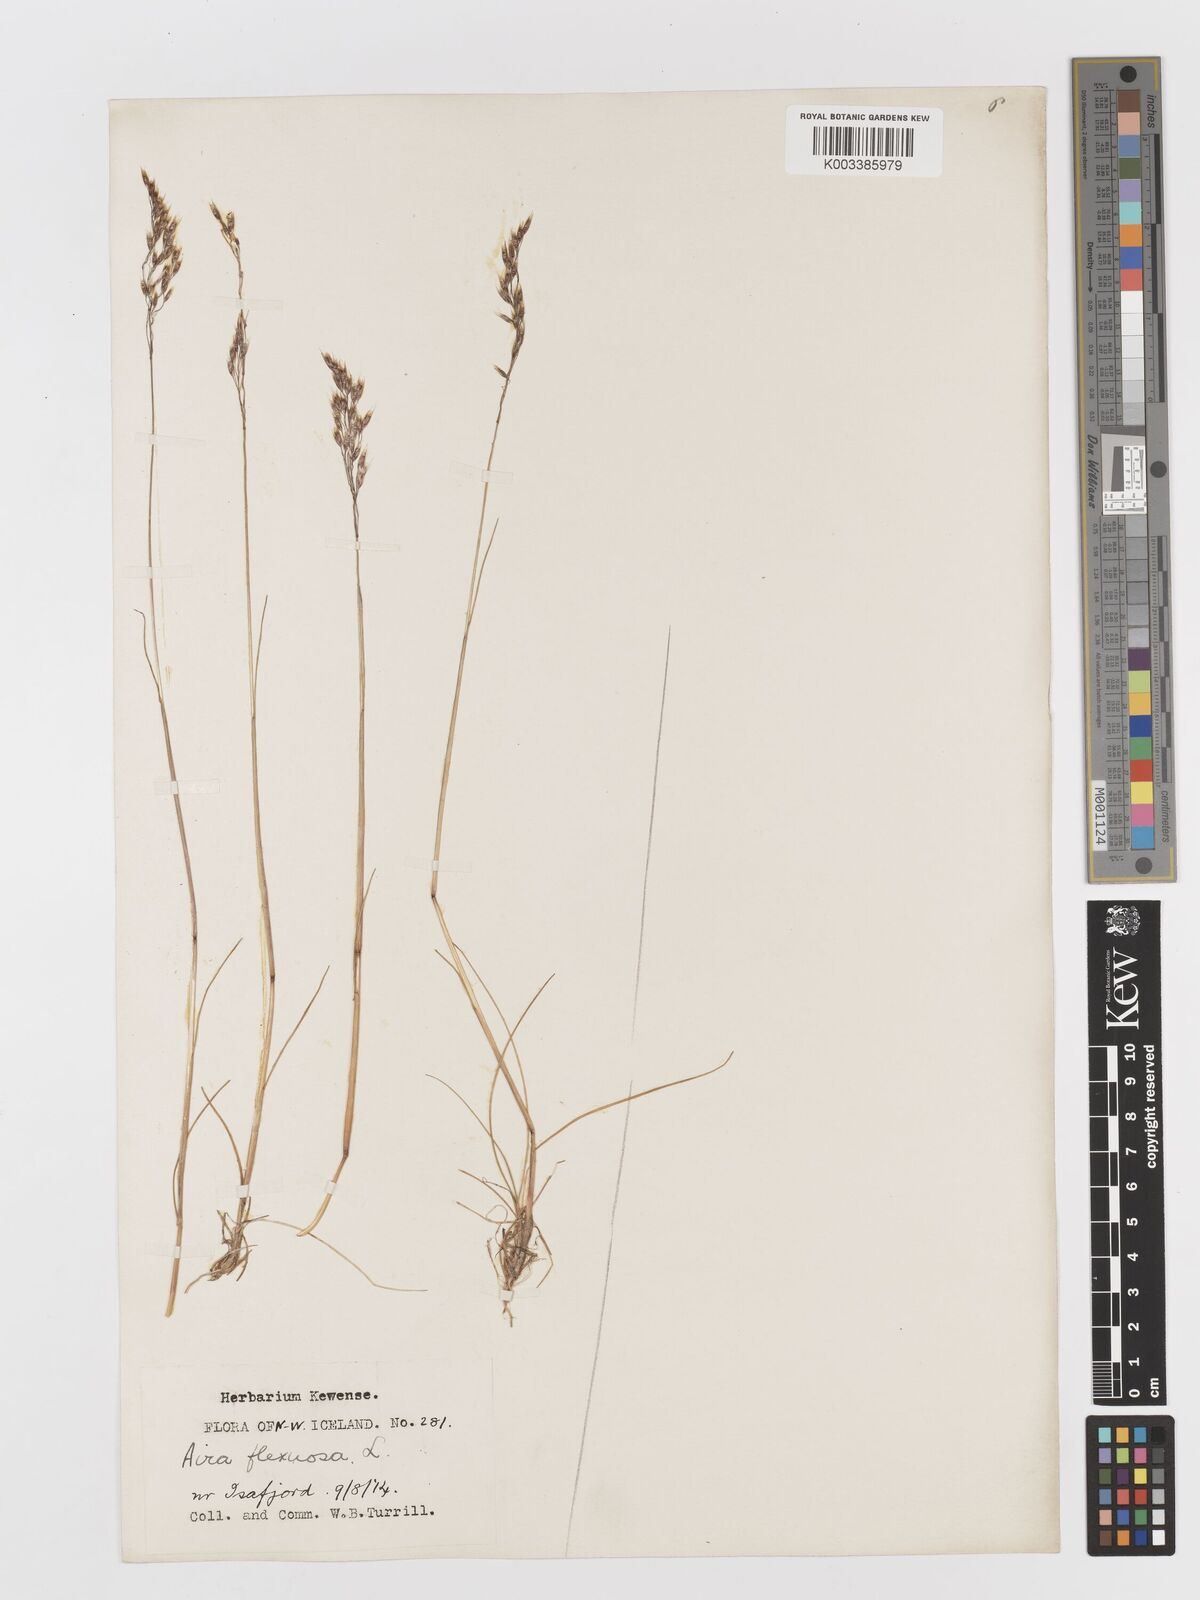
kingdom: Plantae
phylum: Tracheophyta
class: Liliopsida
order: Poales
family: Poaceae
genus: Avenella
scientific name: Avenella flexuosa
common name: Wavy hairgrass
